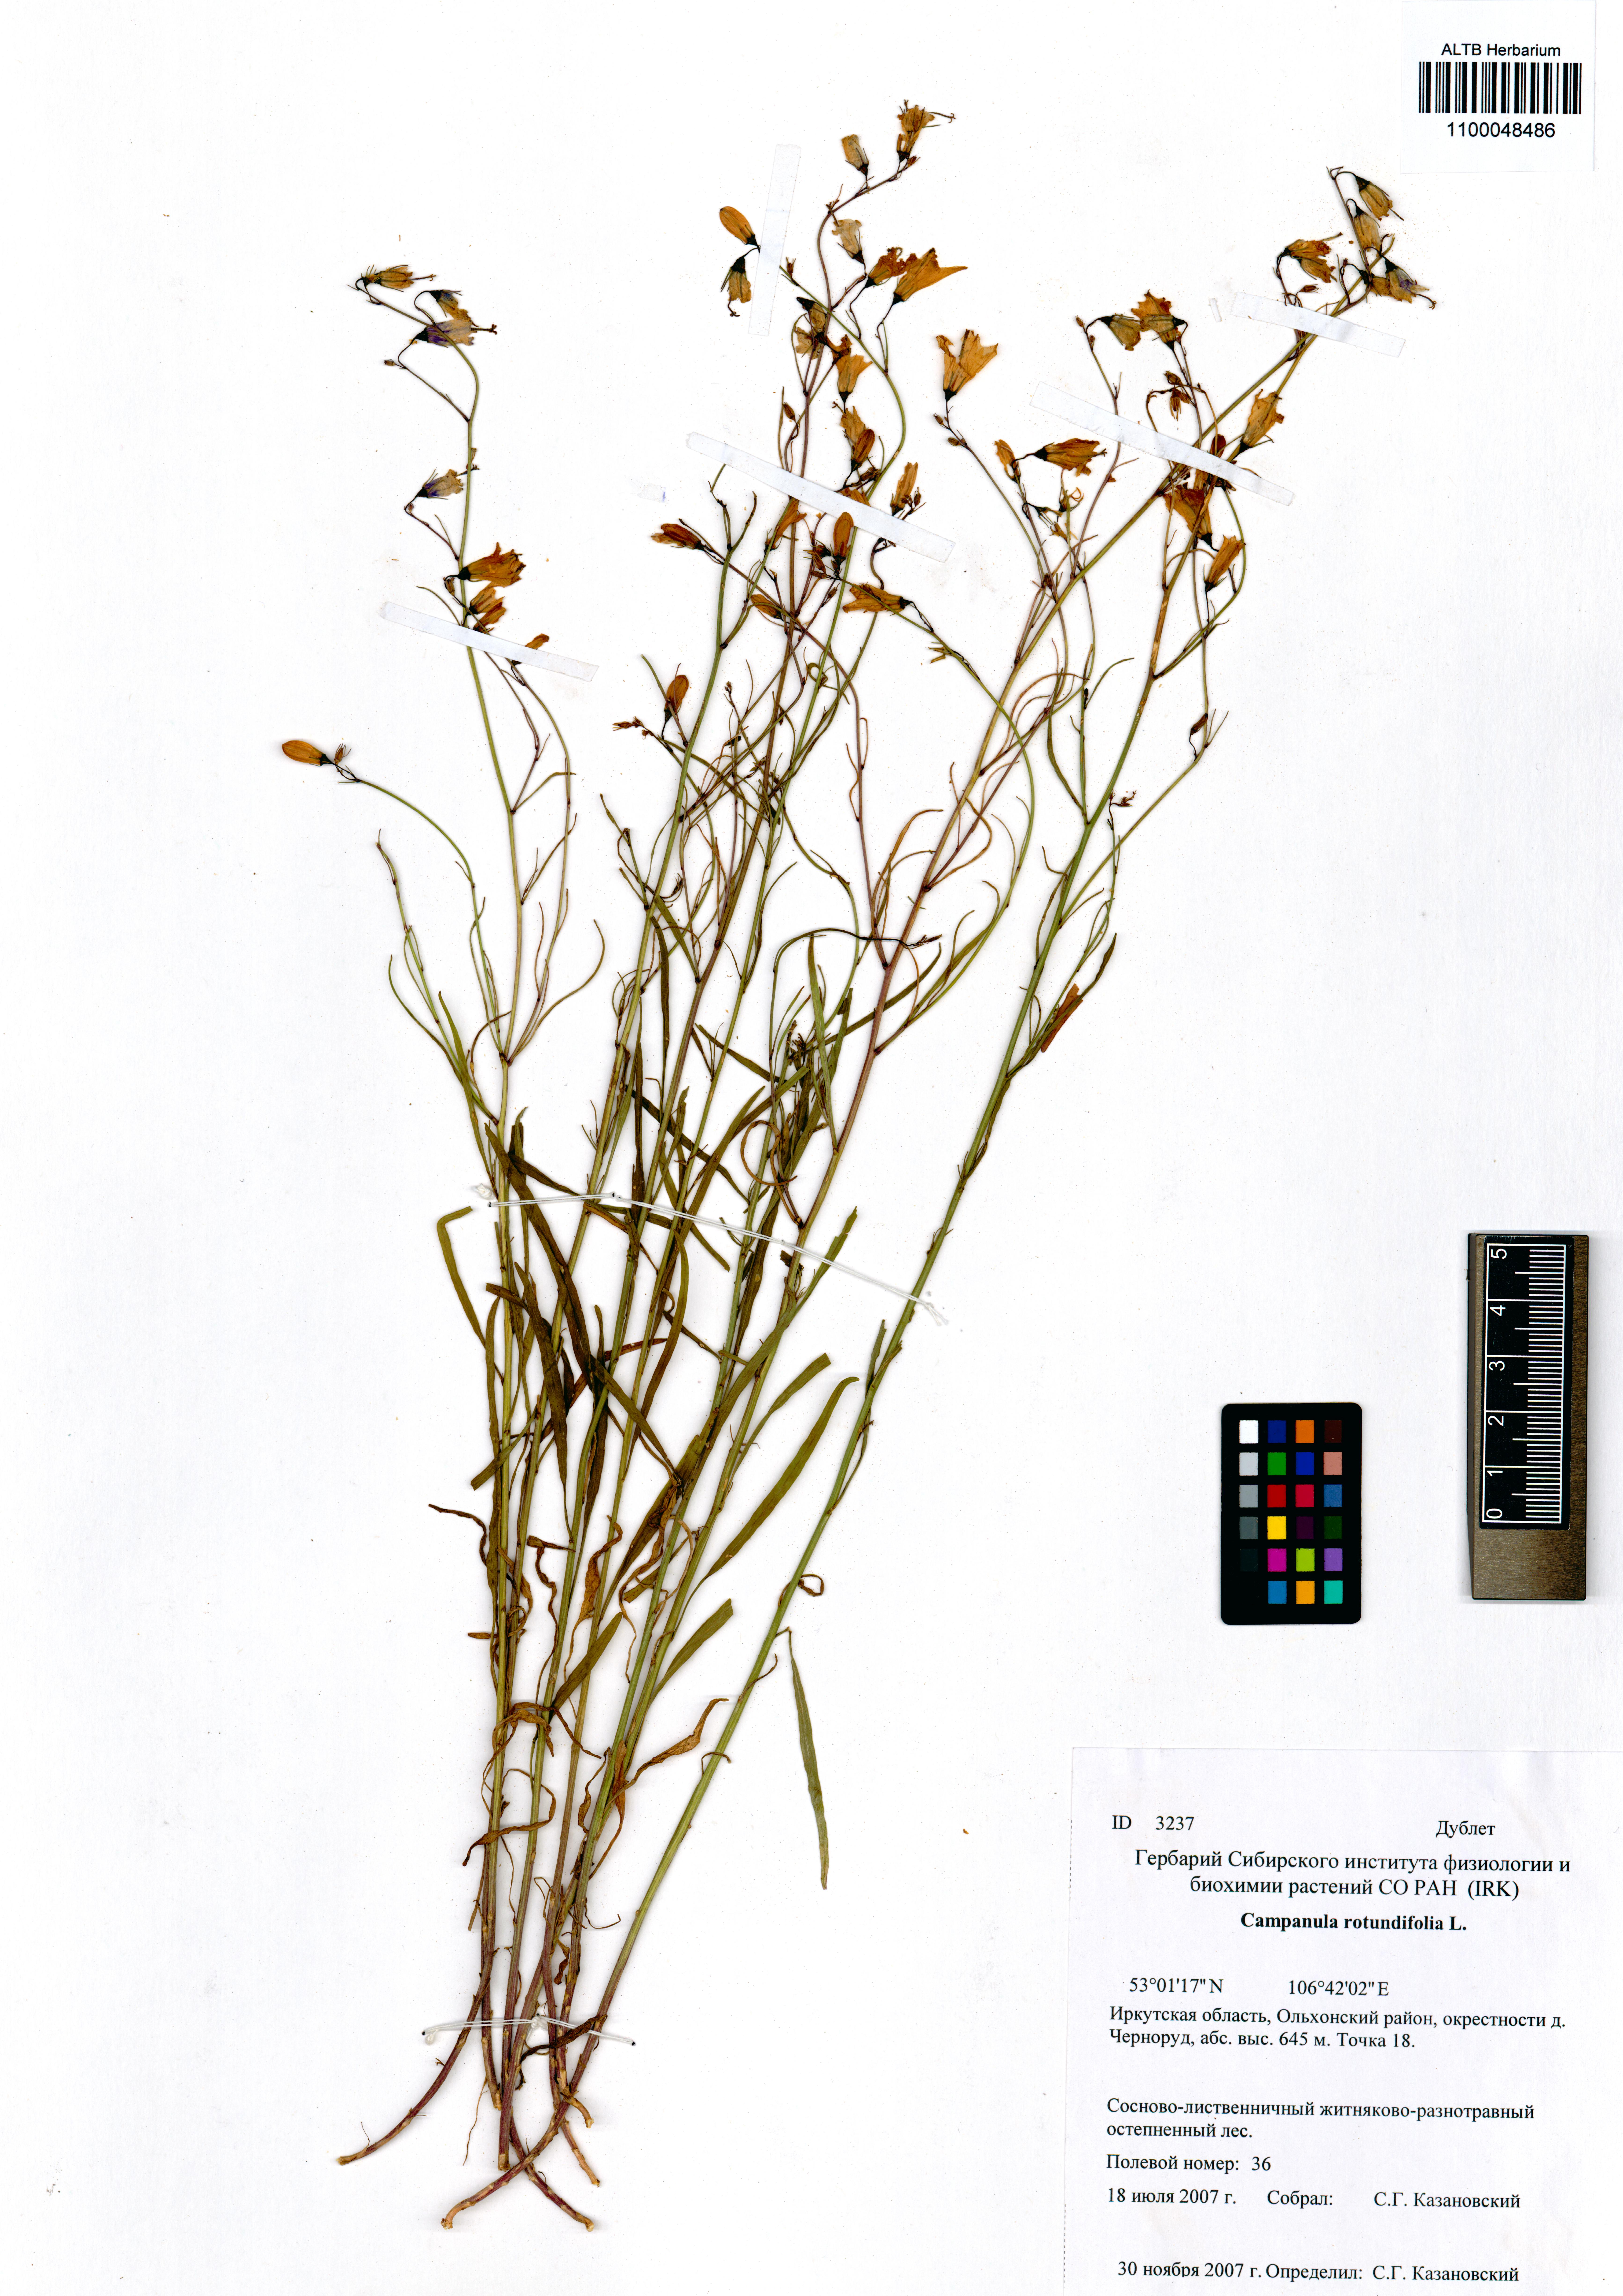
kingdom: Plantae
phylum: Tracheophyta
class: Magnoliopsida
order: Asterales
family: Campanulaceae
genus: Campanula
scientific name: Campanula rotundifolia
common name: Harebell
